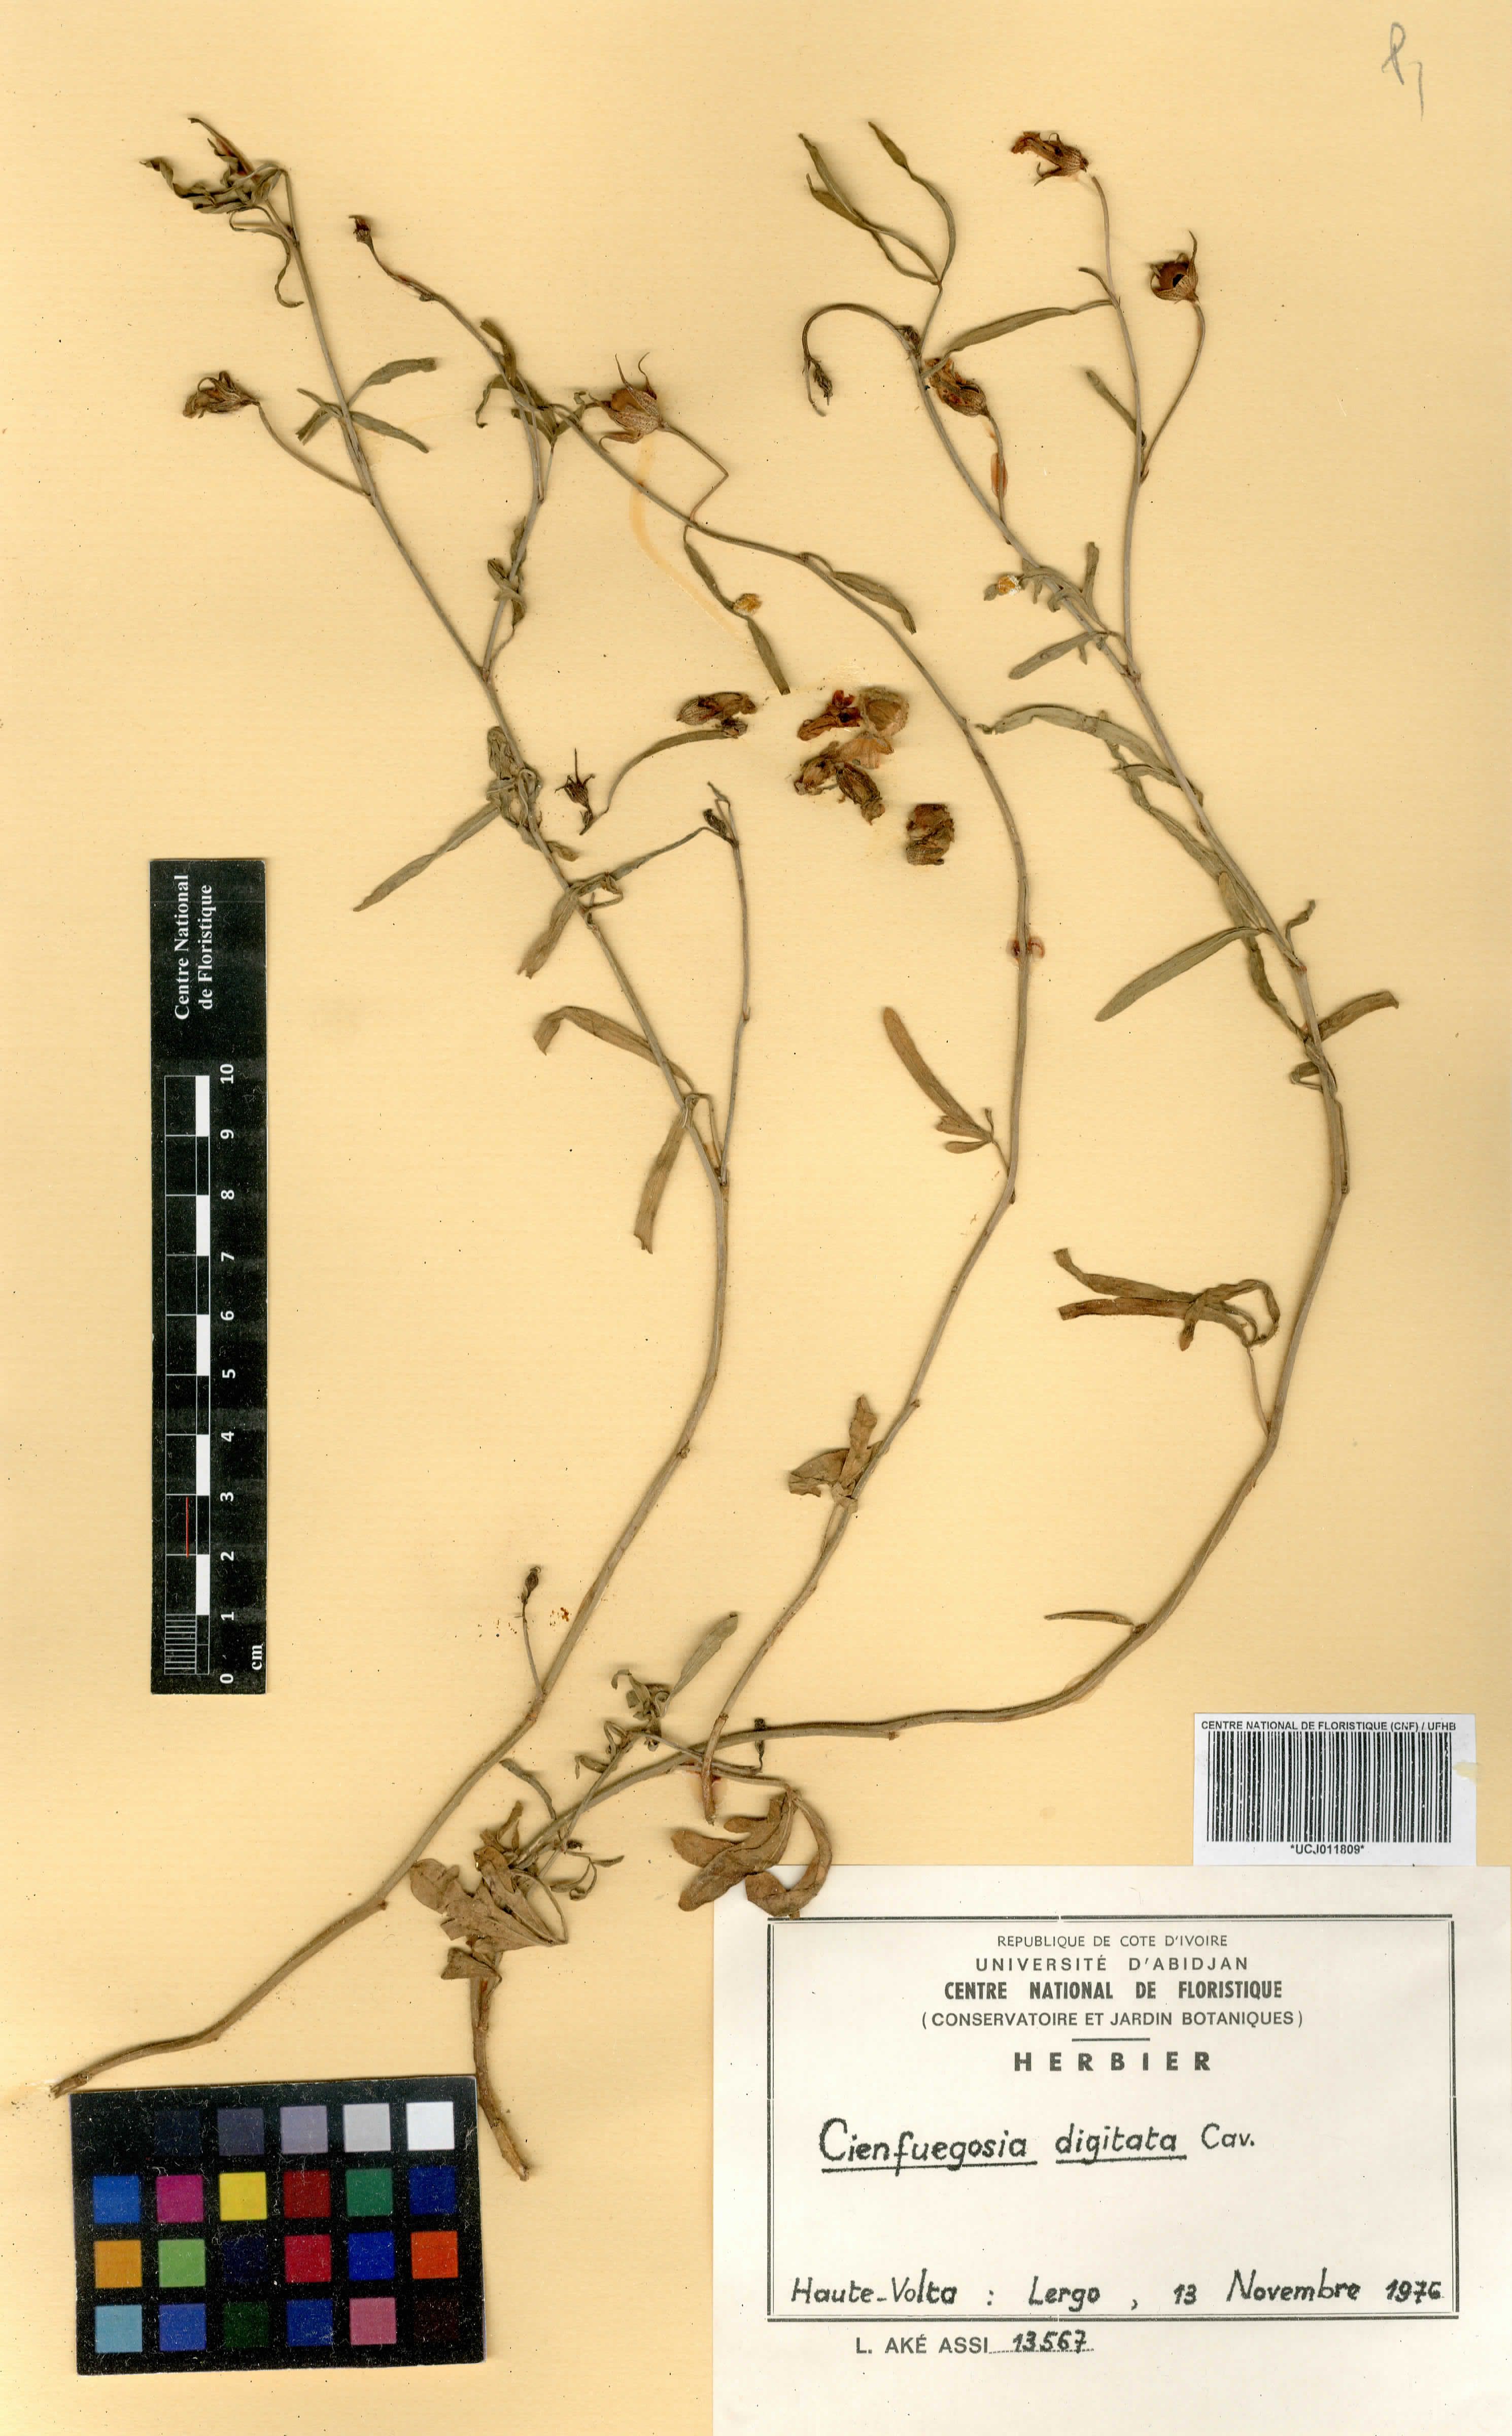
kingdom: Plantae
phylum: Tracheophyta
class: Magnoliopsida
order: Malvales
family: Malvaceae
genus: Cienfuegosia
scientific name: Cienfuegosia digitata
